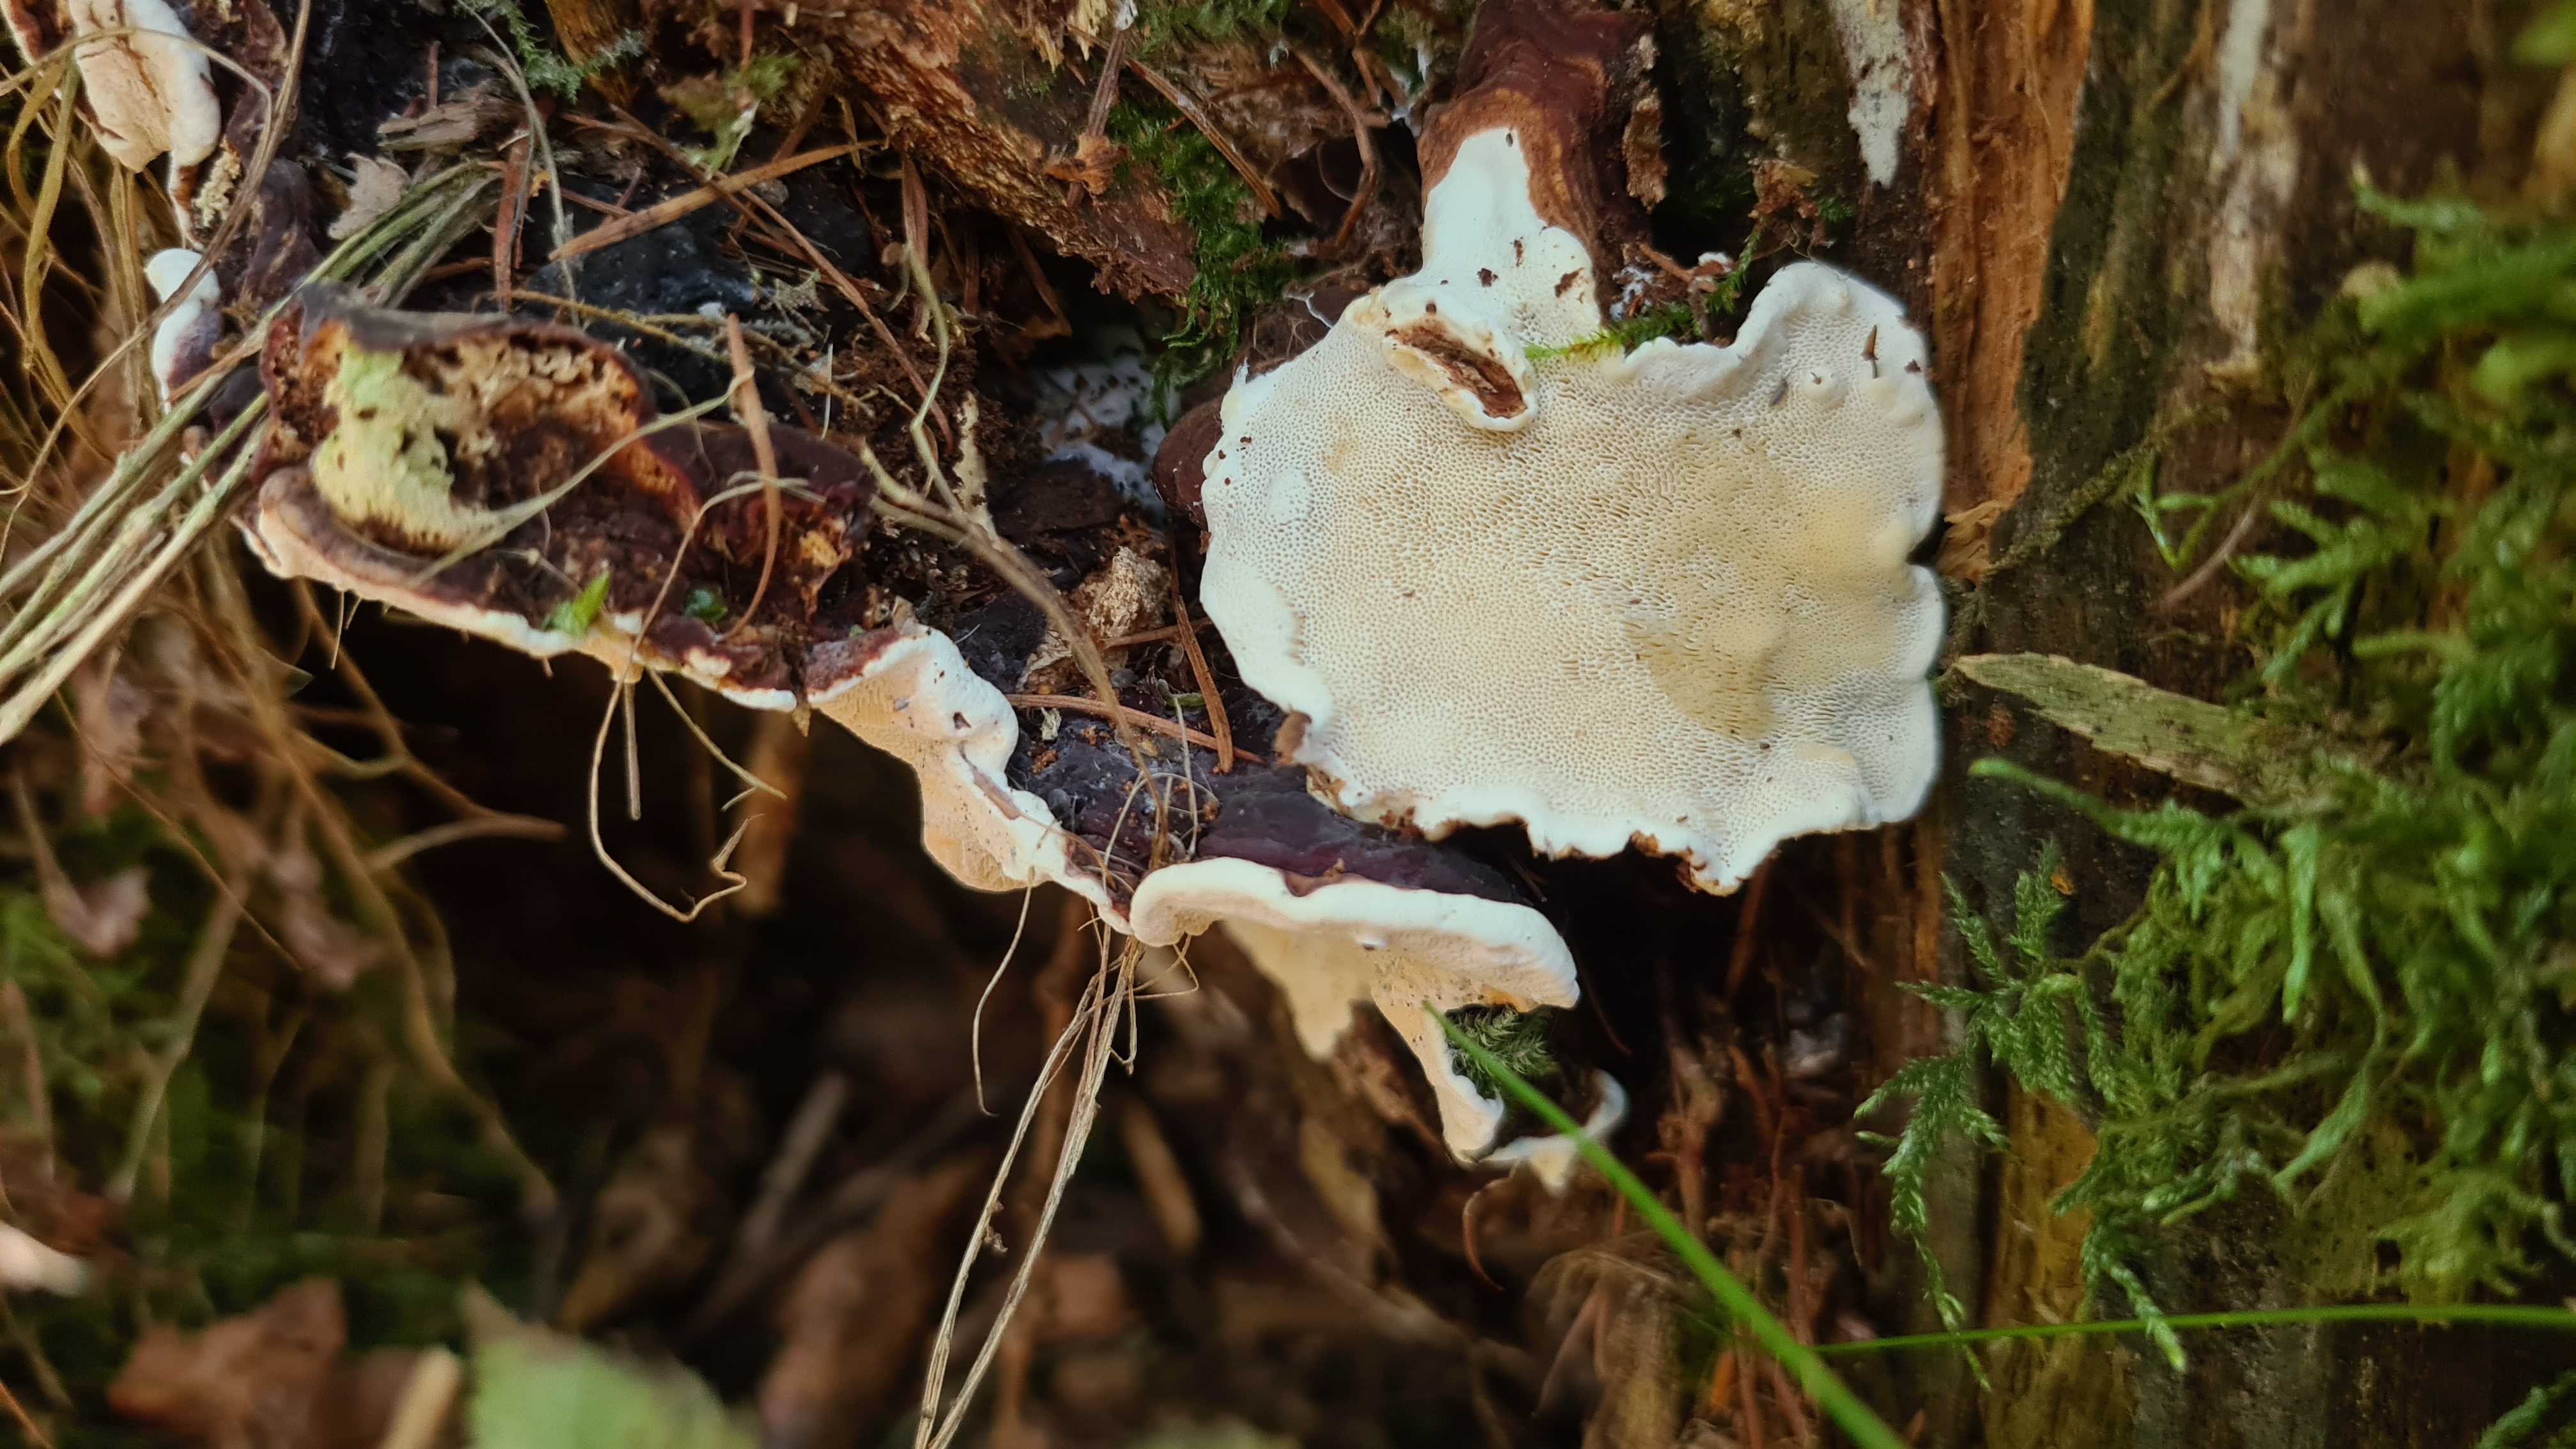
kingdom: Fungi
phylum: Basidiomycota
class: Agaricomycetes
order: Russulales
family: Bondarzewiaceae
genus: Heterobasidion
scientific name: Heterobasidion parviporum
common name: småporet rodfordærver
